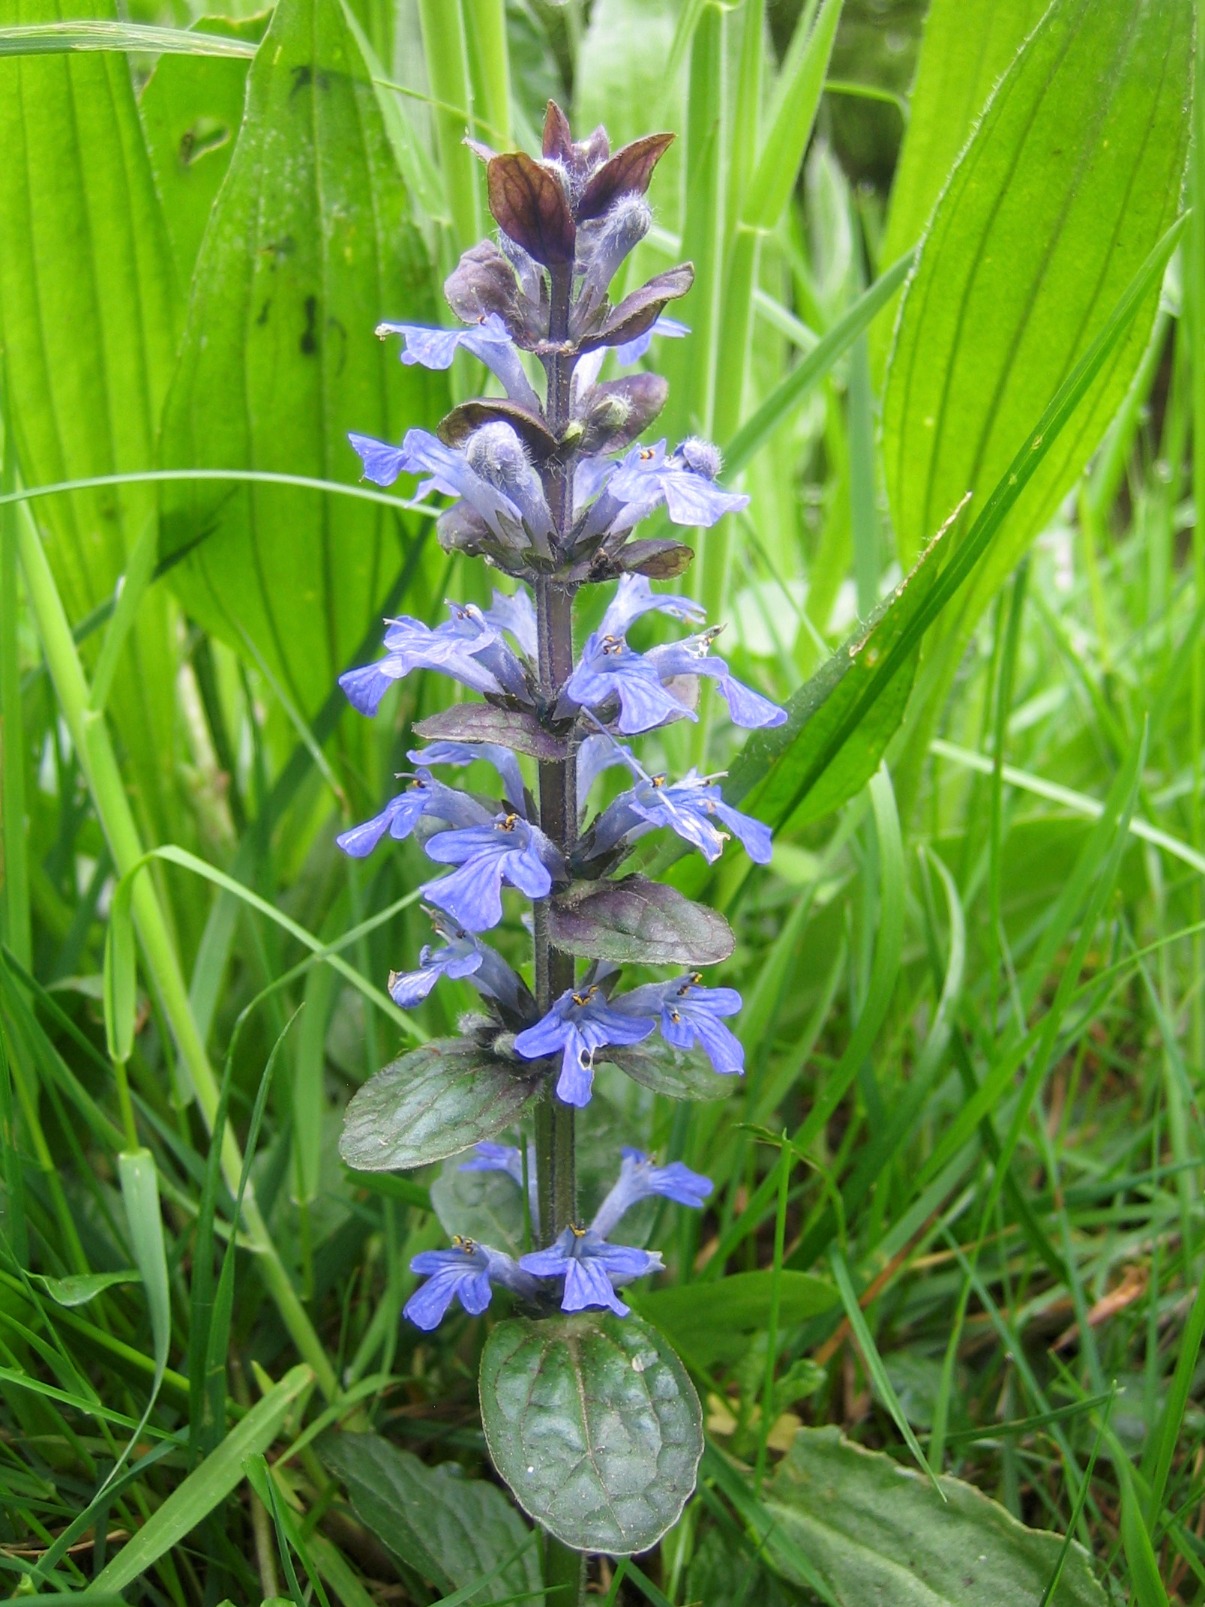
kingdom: Plantae
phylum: Tracheophyta
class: Magnoliopsida
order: Lamiales
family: Lamiaceae
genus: Ajuga
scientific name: Ajuga reptans
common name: Krybende læbeløs
